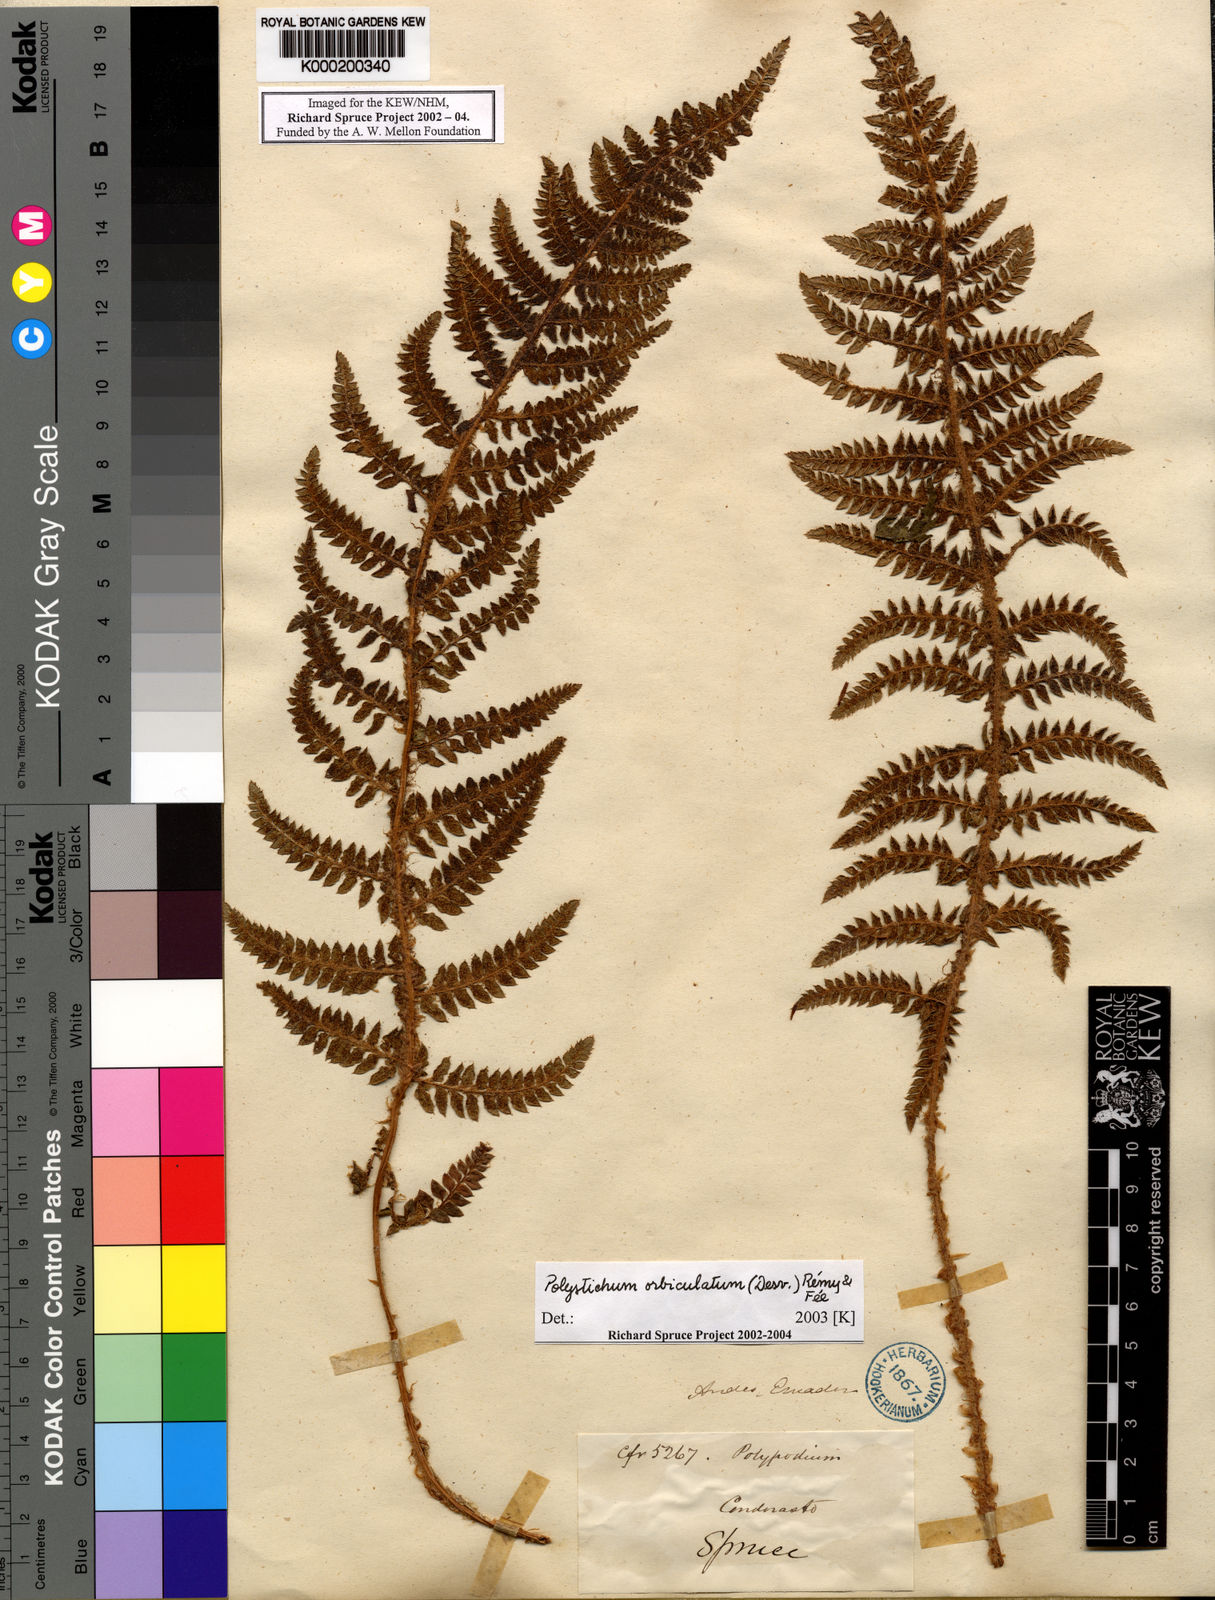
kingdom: Plantae
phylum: Tracheophyta
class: Polypodiopsida
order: Polypodiales
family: Dryopteridaceae
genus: Polystichum
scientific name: Polystichum
